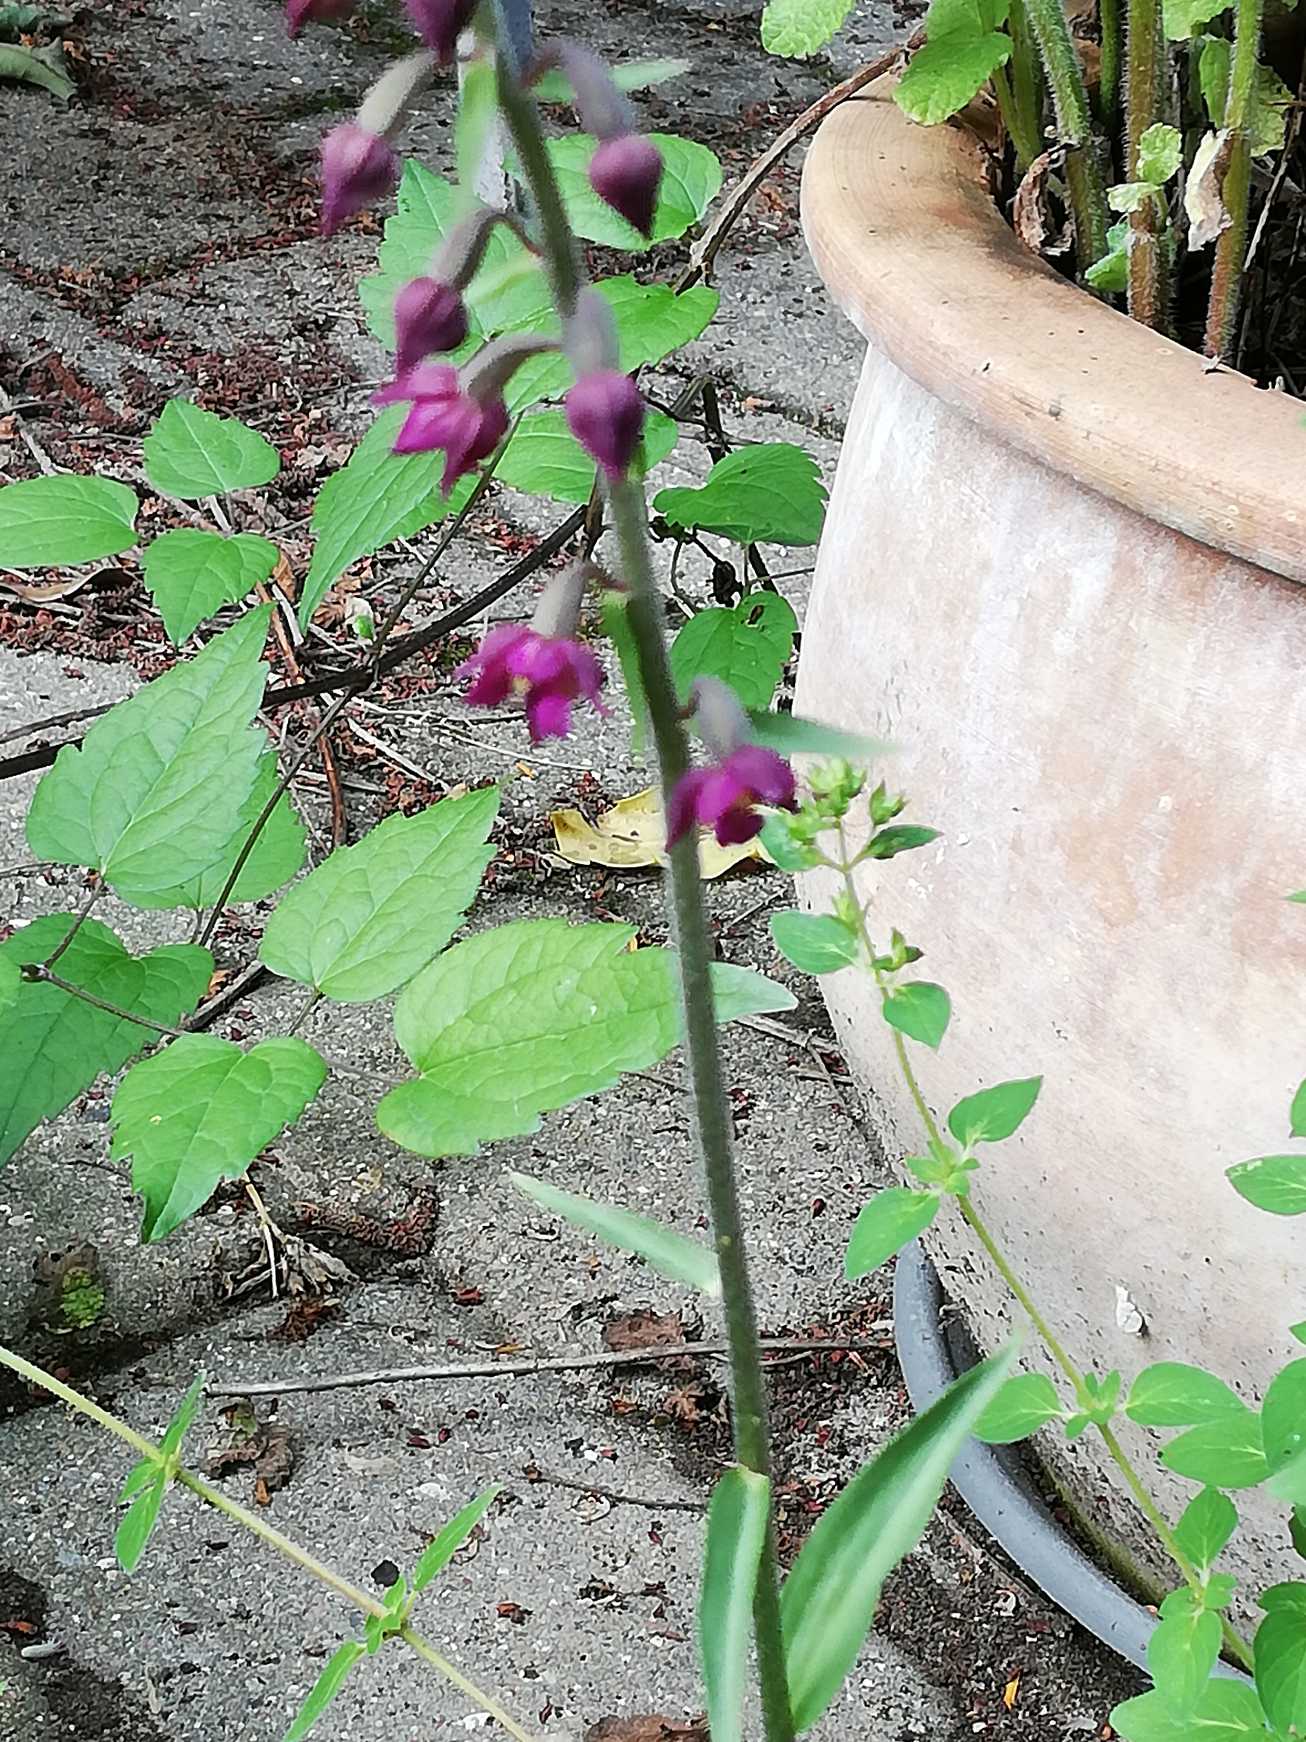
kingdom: Plantae
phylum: Tracheophyta
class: Liliopsida
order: Asparagales
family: Orchidaceae
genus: Epipactis
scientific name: Epipactis atrorubens
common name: Rød hullæbe
